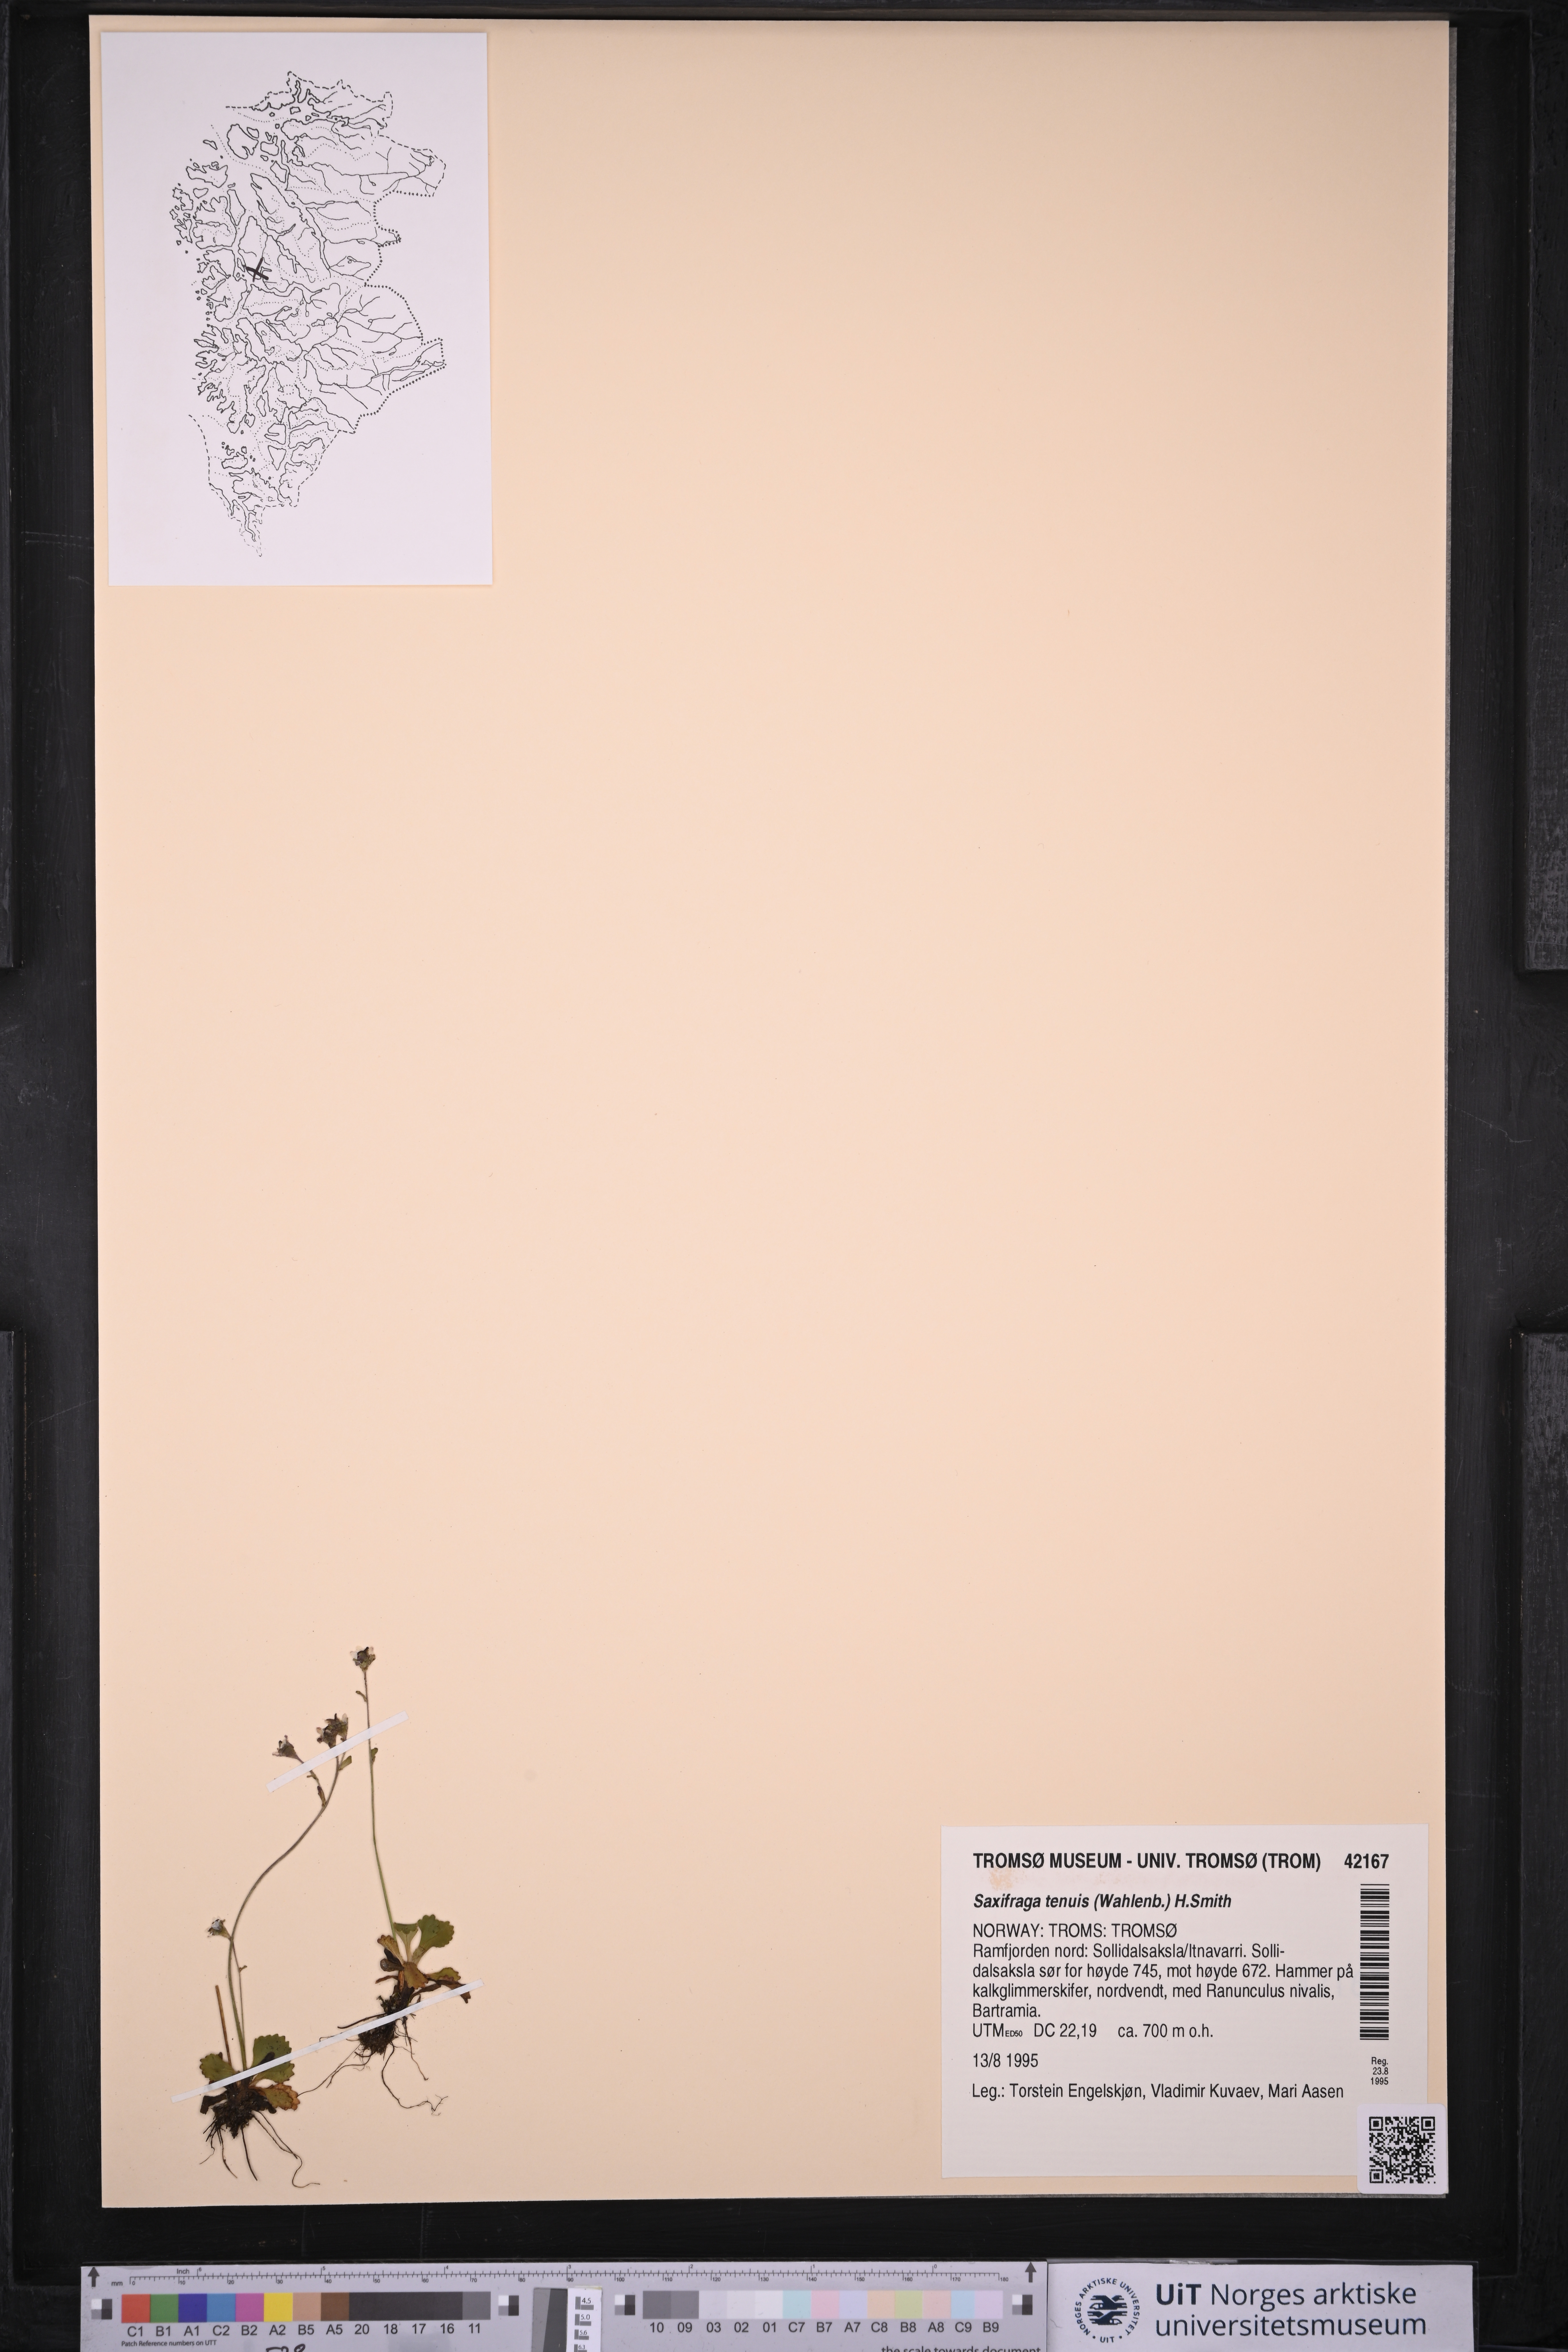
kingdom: Plantae
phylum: Tracheophyta
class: Magnoliopsida
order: Saxifragales
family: Saxifragaceae
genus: Micranthes
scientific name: Micranthes tenuis
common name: Ottertail pass saxifrage
